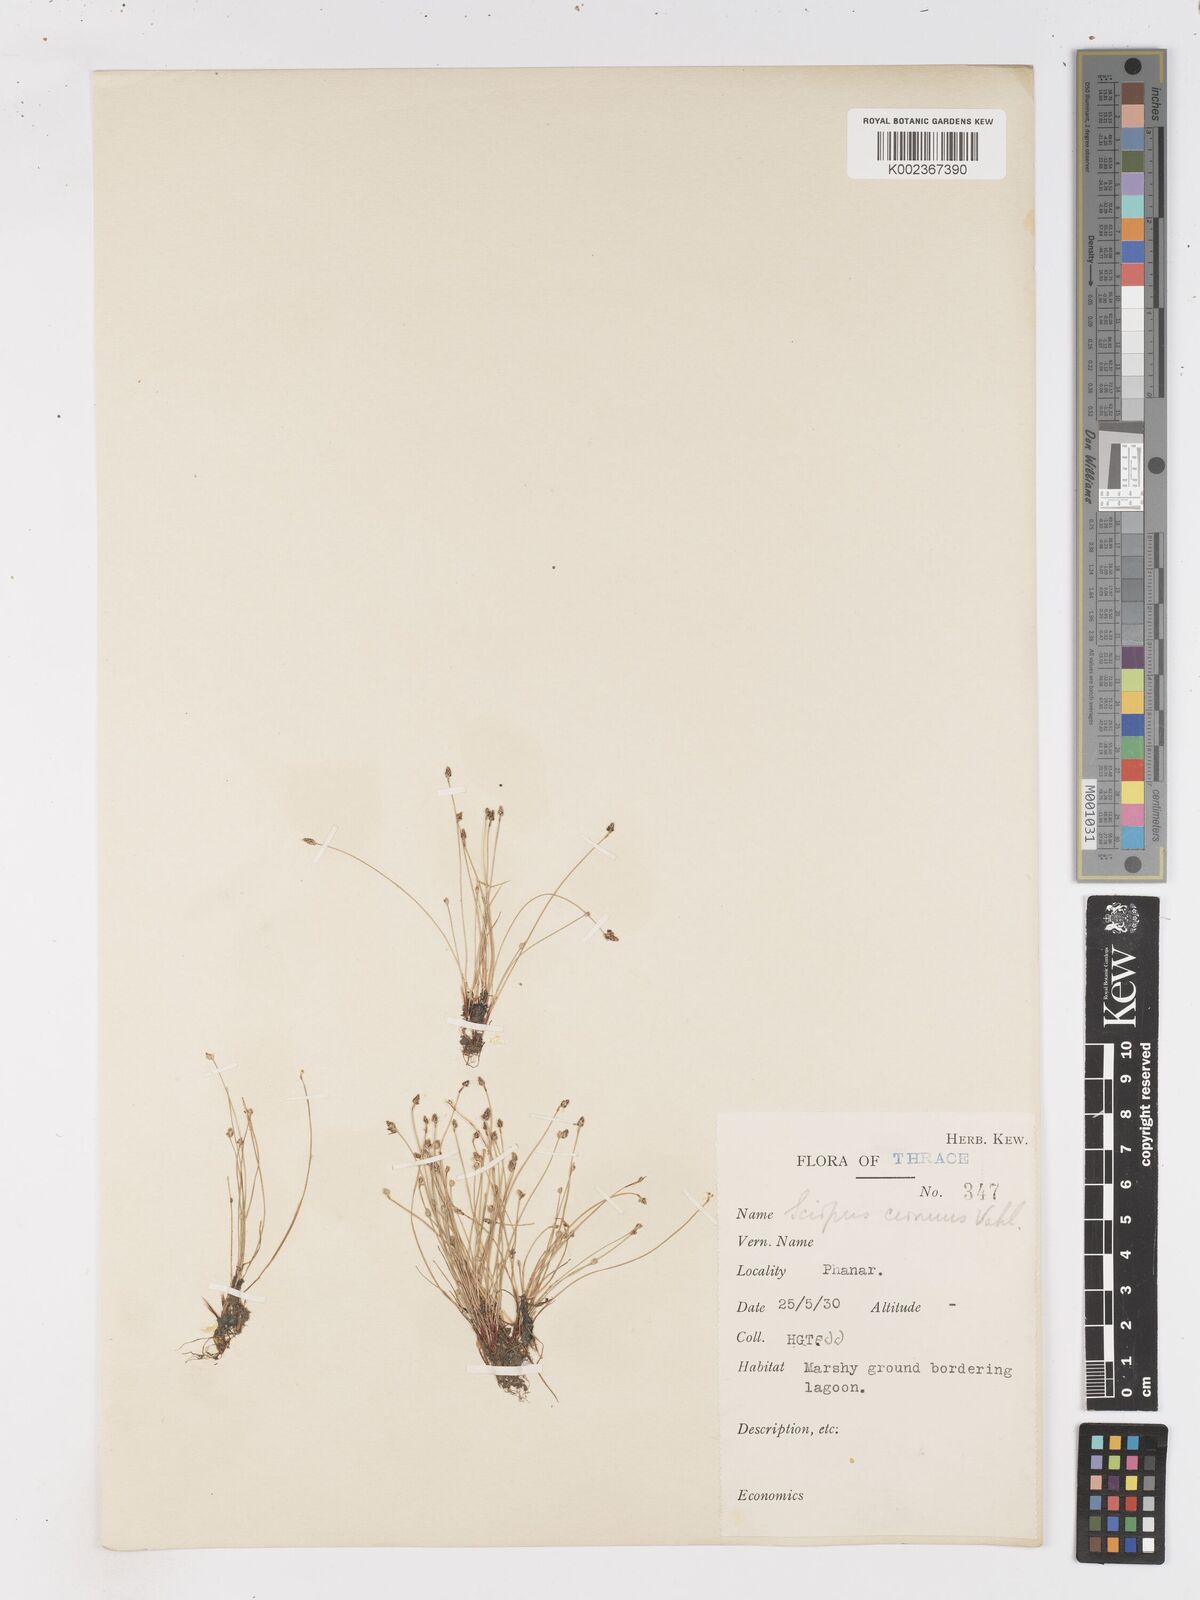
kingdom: Plantae
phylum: Tracheophyta
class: Liliopsida
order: Poales
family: Cyperaceae
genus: Isolepis
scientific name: Isolepis cernua
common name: Slender club-rush
